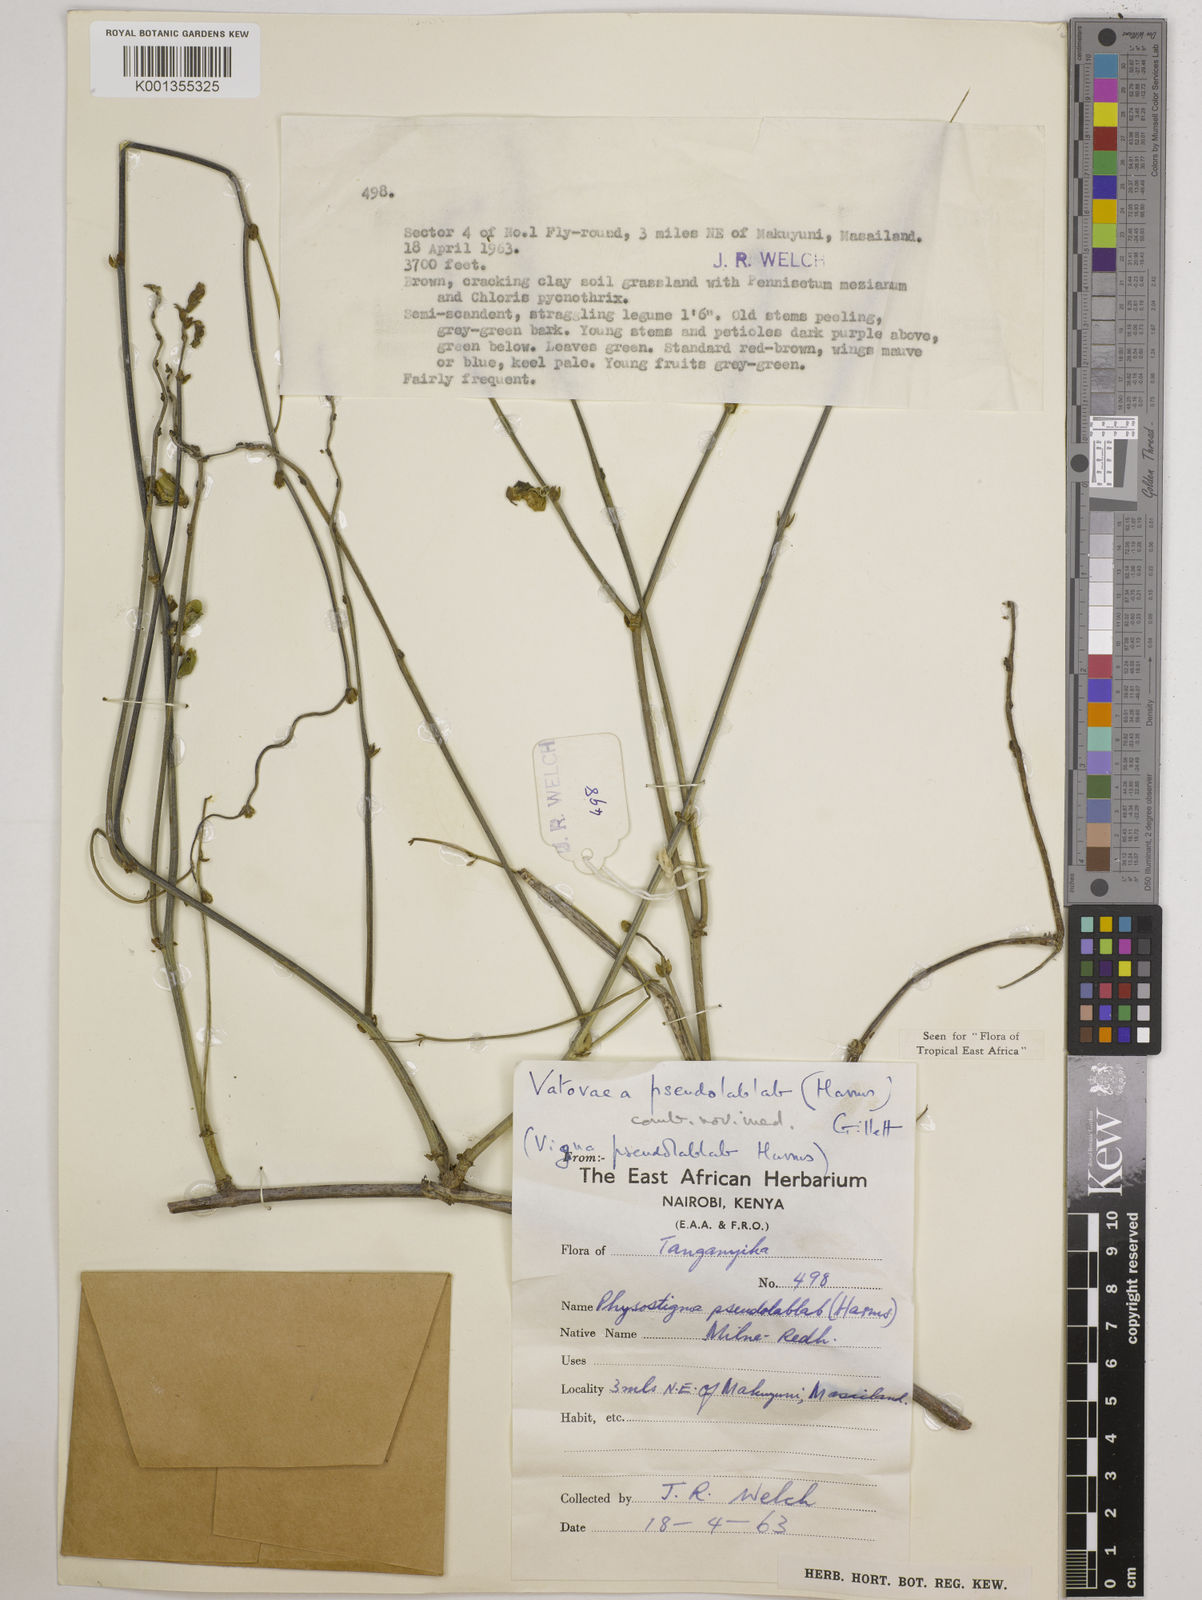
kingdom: Plantae
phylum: Tracheophyta
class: Magnoliopsida
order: Fabales
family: Fabaceae
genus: Vatovaea
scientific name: Vatovaea pseudolablab
